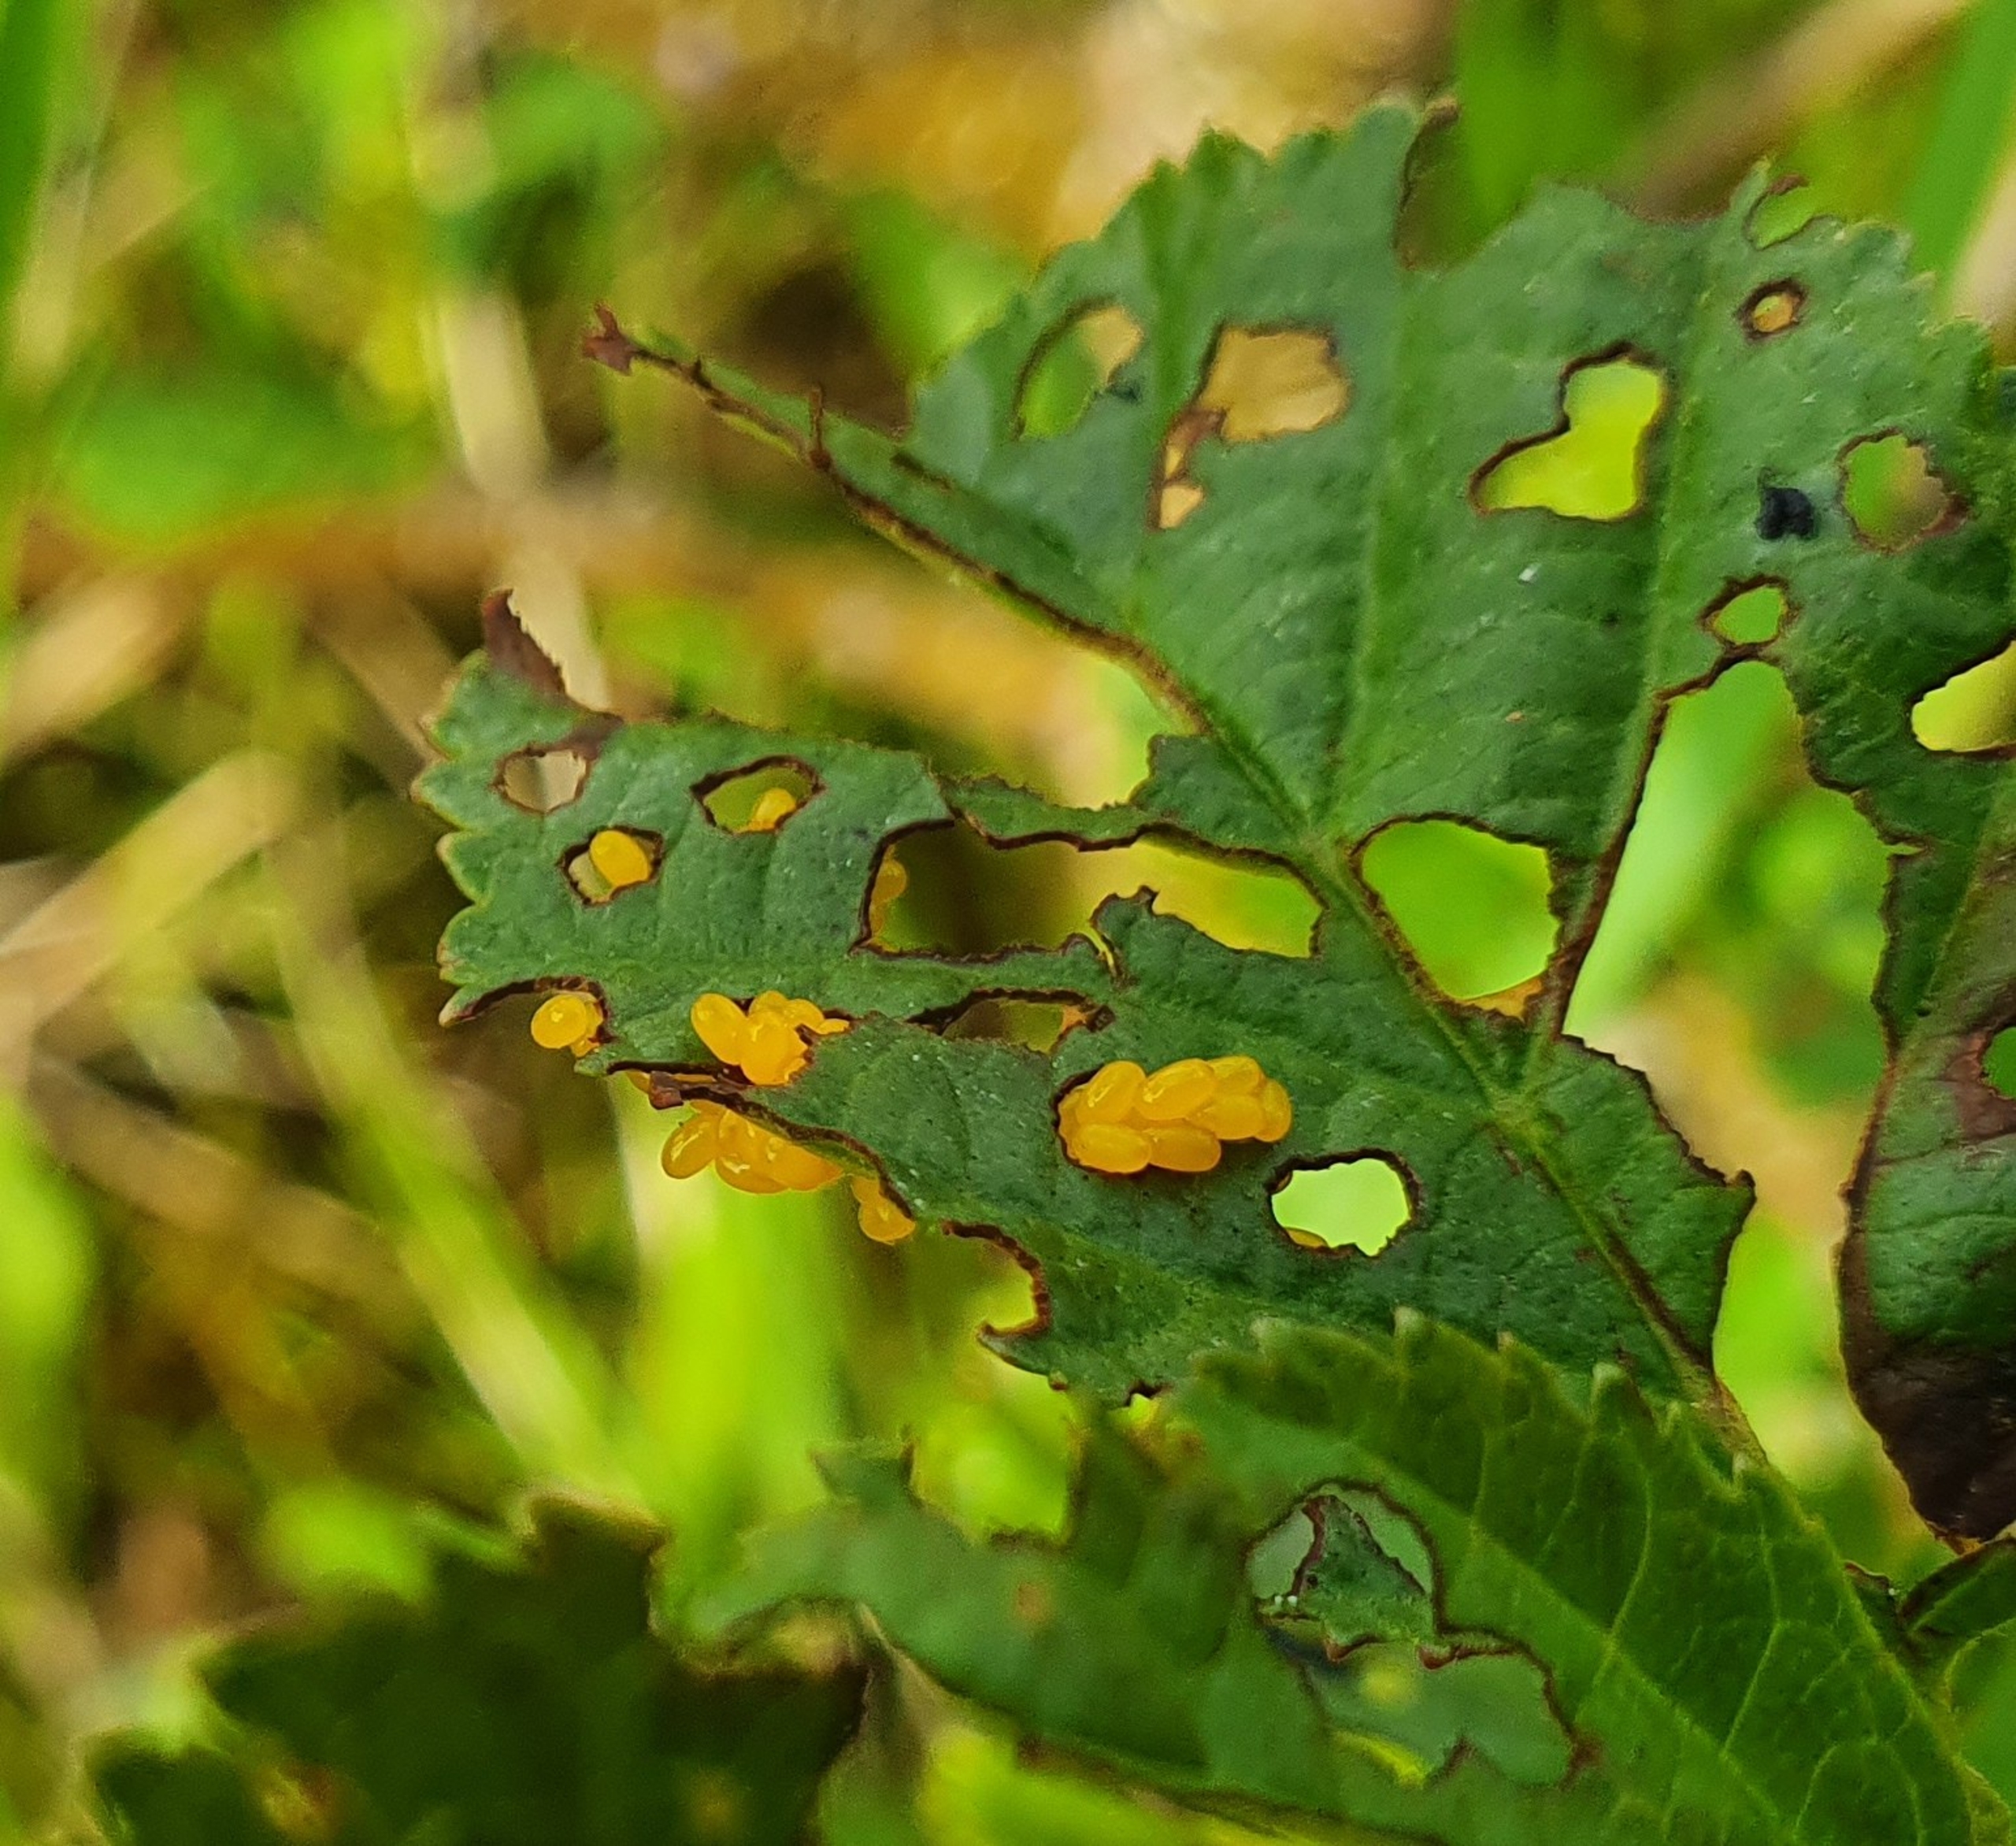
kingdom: Animalia
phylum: Arthropoda
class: Insecta
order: Coleoptera
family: Chrysomelidae
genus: Agelastica
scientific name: Agelastica alni
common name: Ellebladbille
